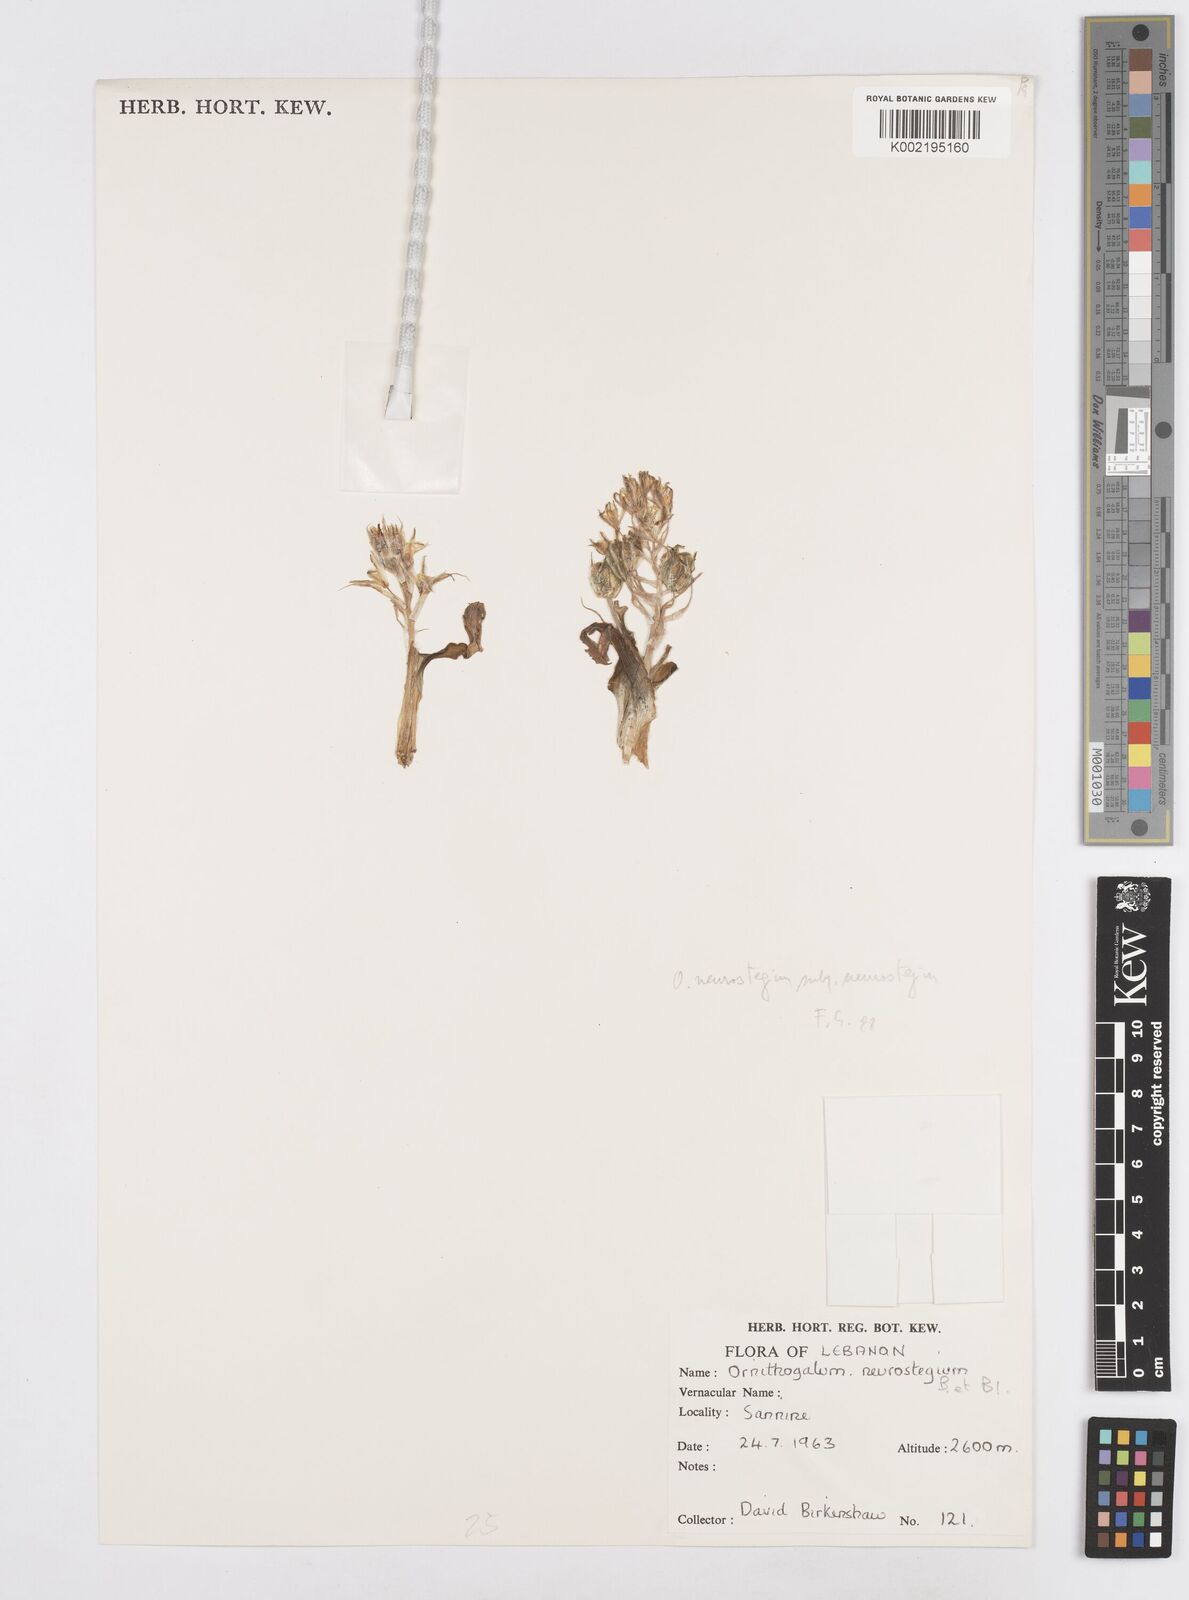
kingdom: Plantae
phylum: Tracheophyta
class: Liliopsida
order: Asparagales
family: Asparagaceae
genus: Ornithogalum
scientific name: Ornithogalum neurostegium
